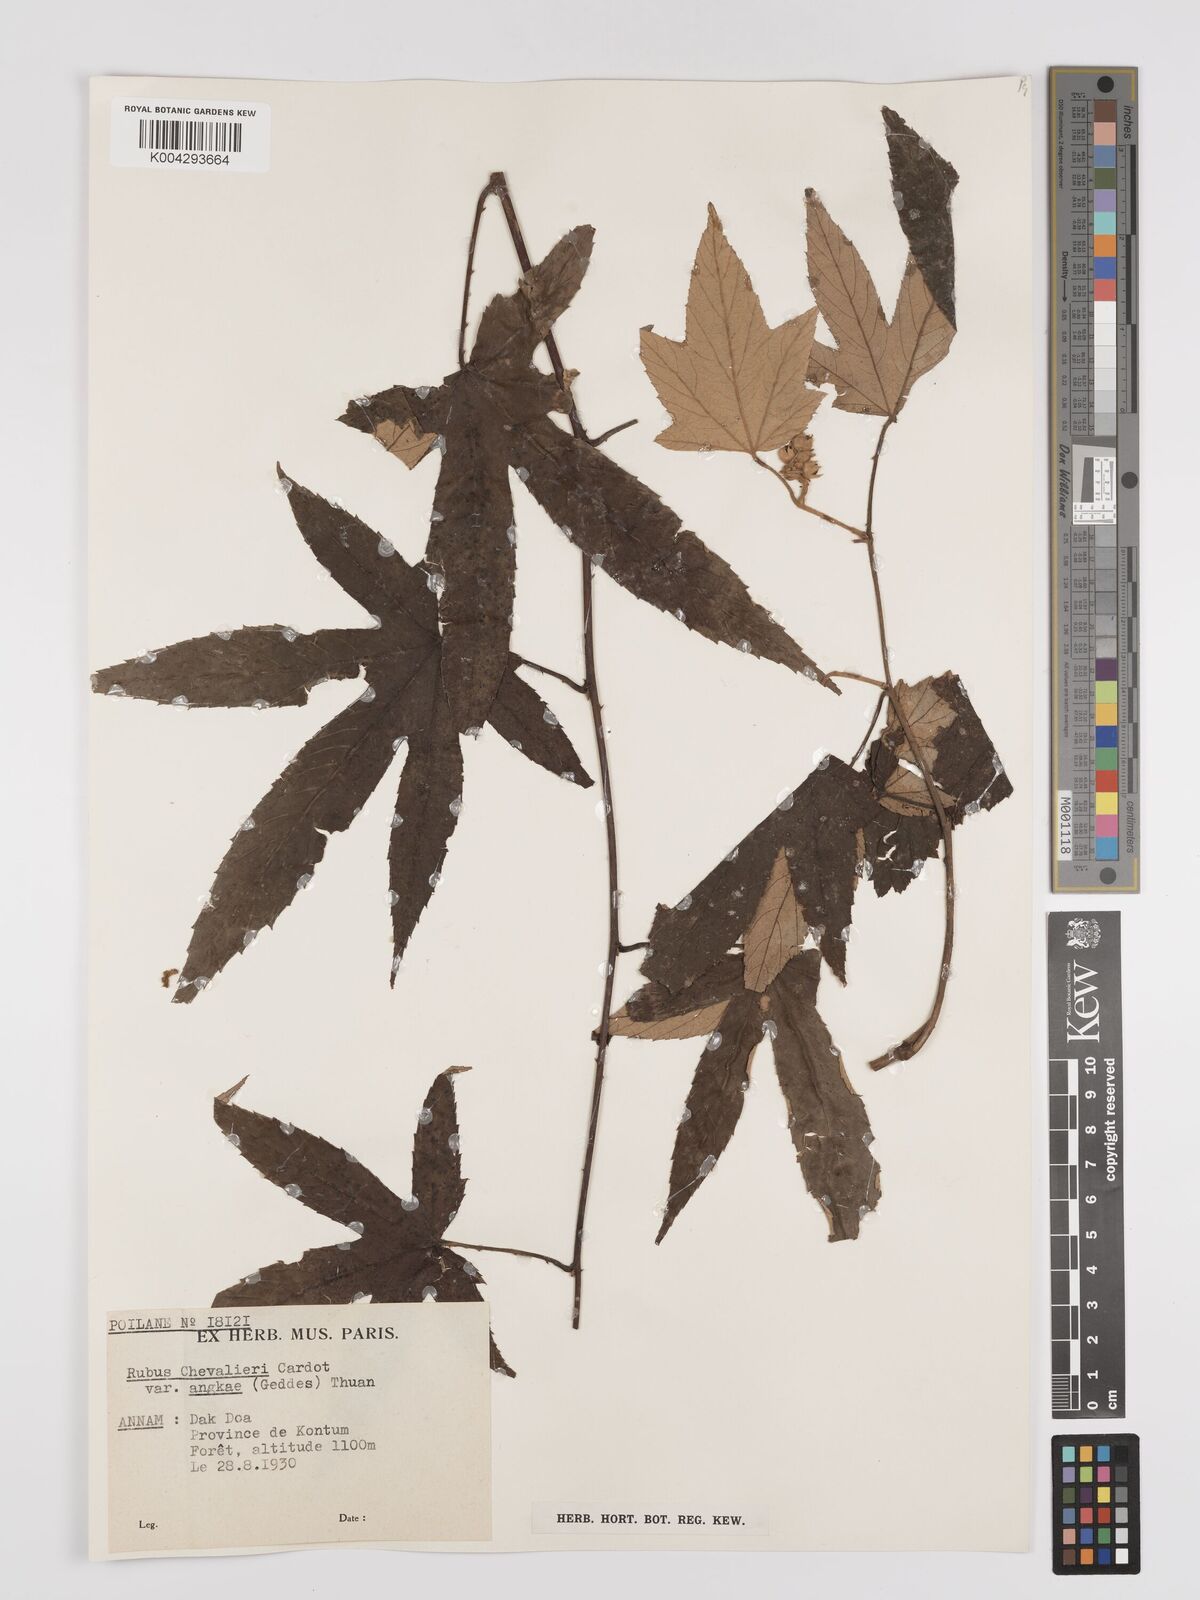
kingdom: Plantae
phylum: Tracheophyta
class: Magnoliopsida
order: Rosales
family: Rosaceae
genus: Rubus
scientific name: Rubus chevalieri
